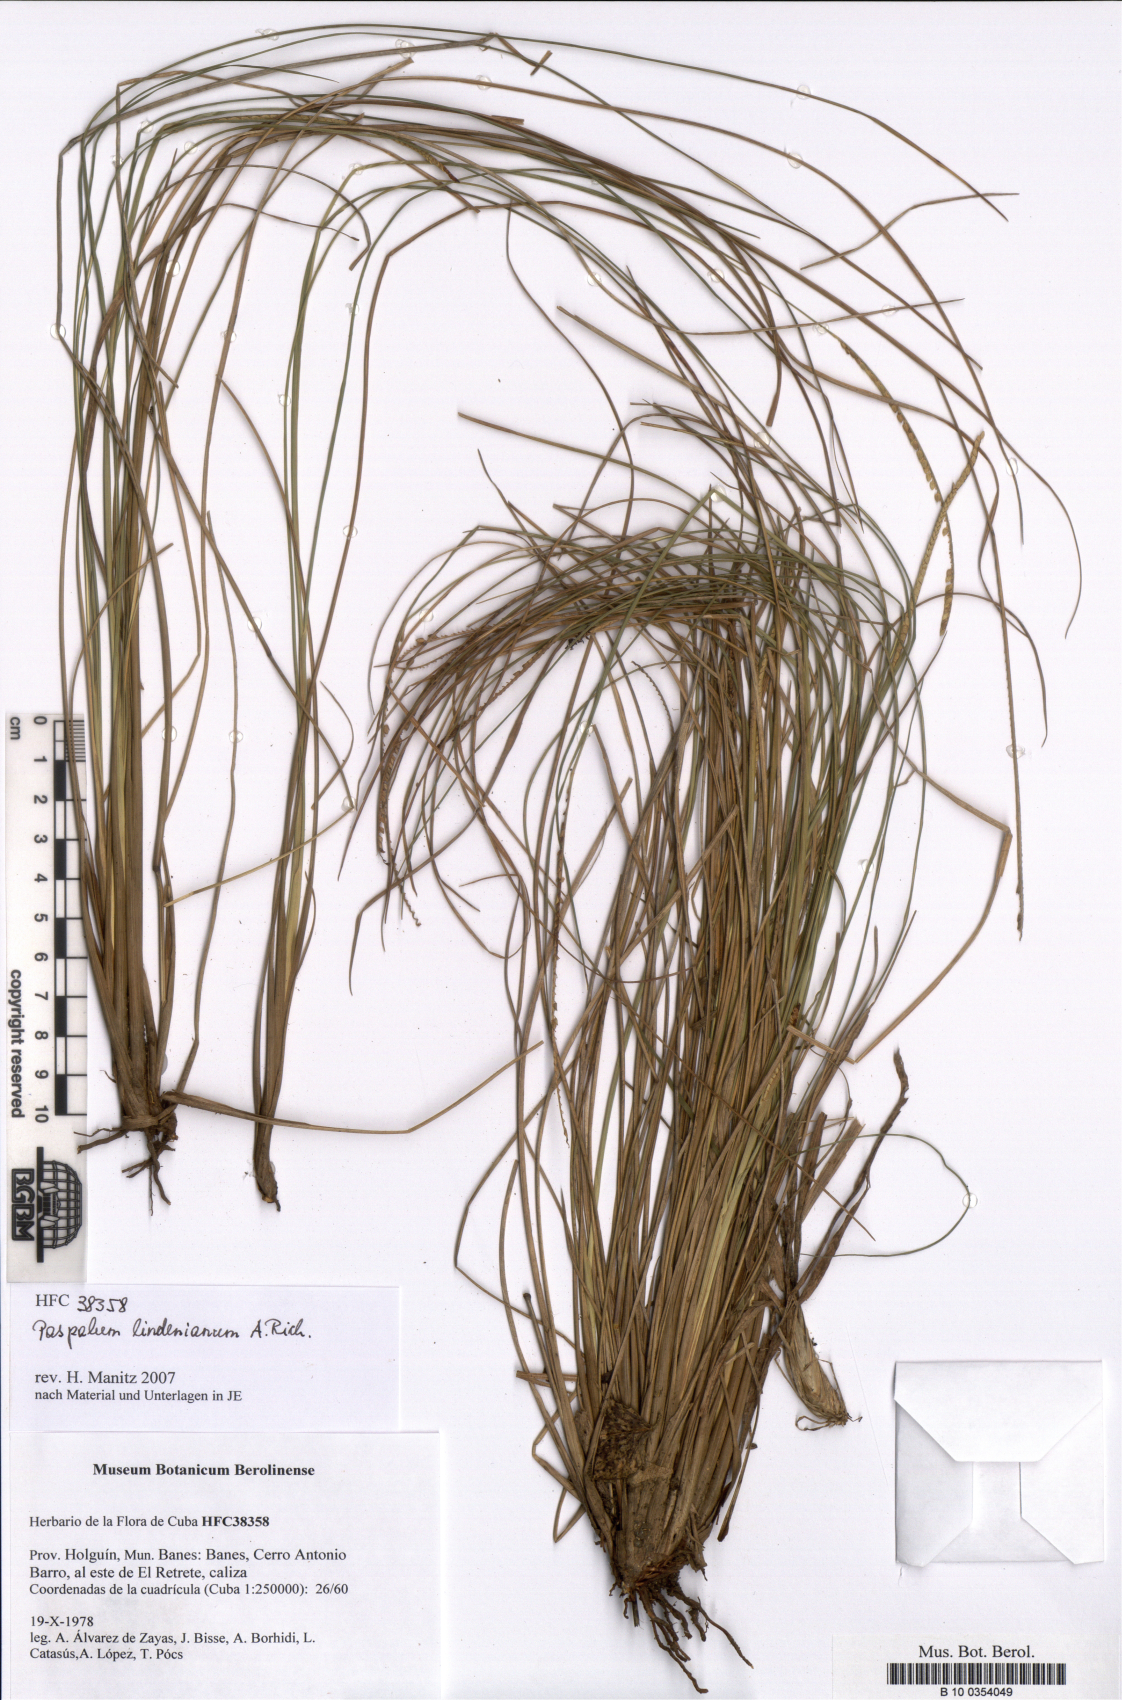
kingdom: Plantae
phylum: Tracheophyta
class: Liliopsida
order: Poales
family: Poaceae
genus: Paspalum
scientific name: Paspalum lindenianum
